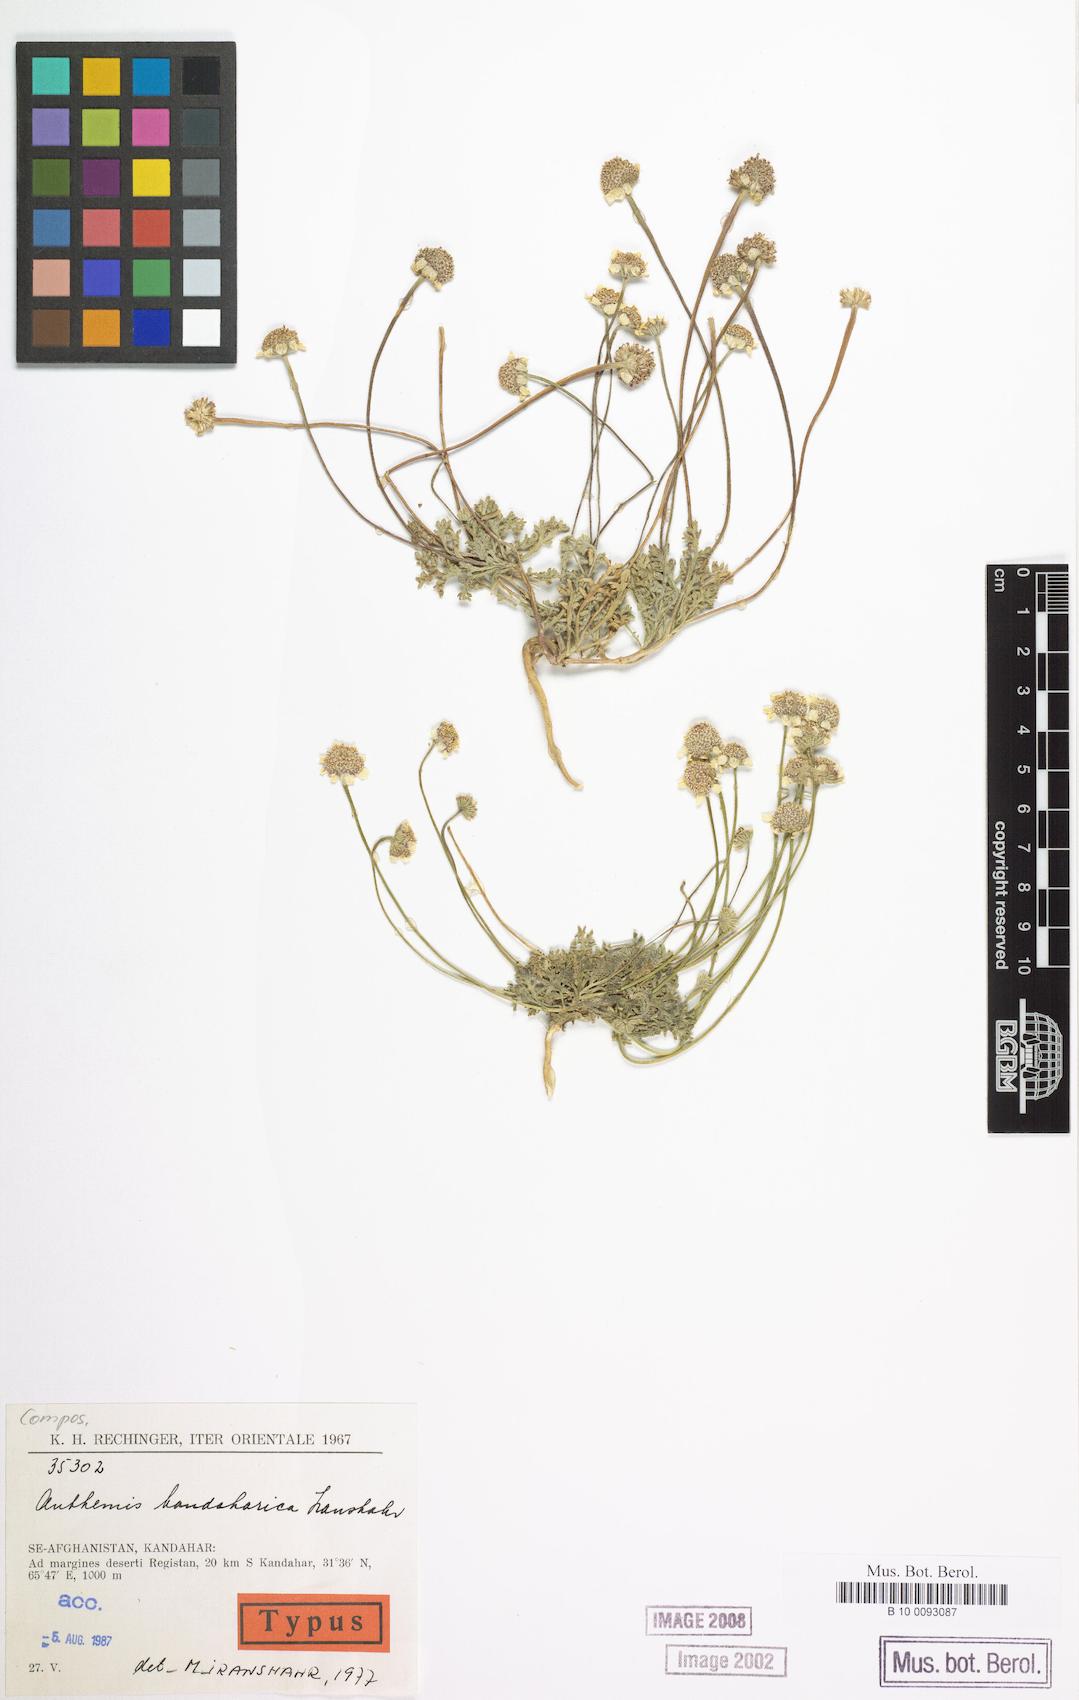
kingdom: Plantae
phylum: Tracheophyta
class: Magnoliopsida
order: Asterales
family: Asteraceae
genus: Anthemis
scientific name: Anthemis kandaharica
